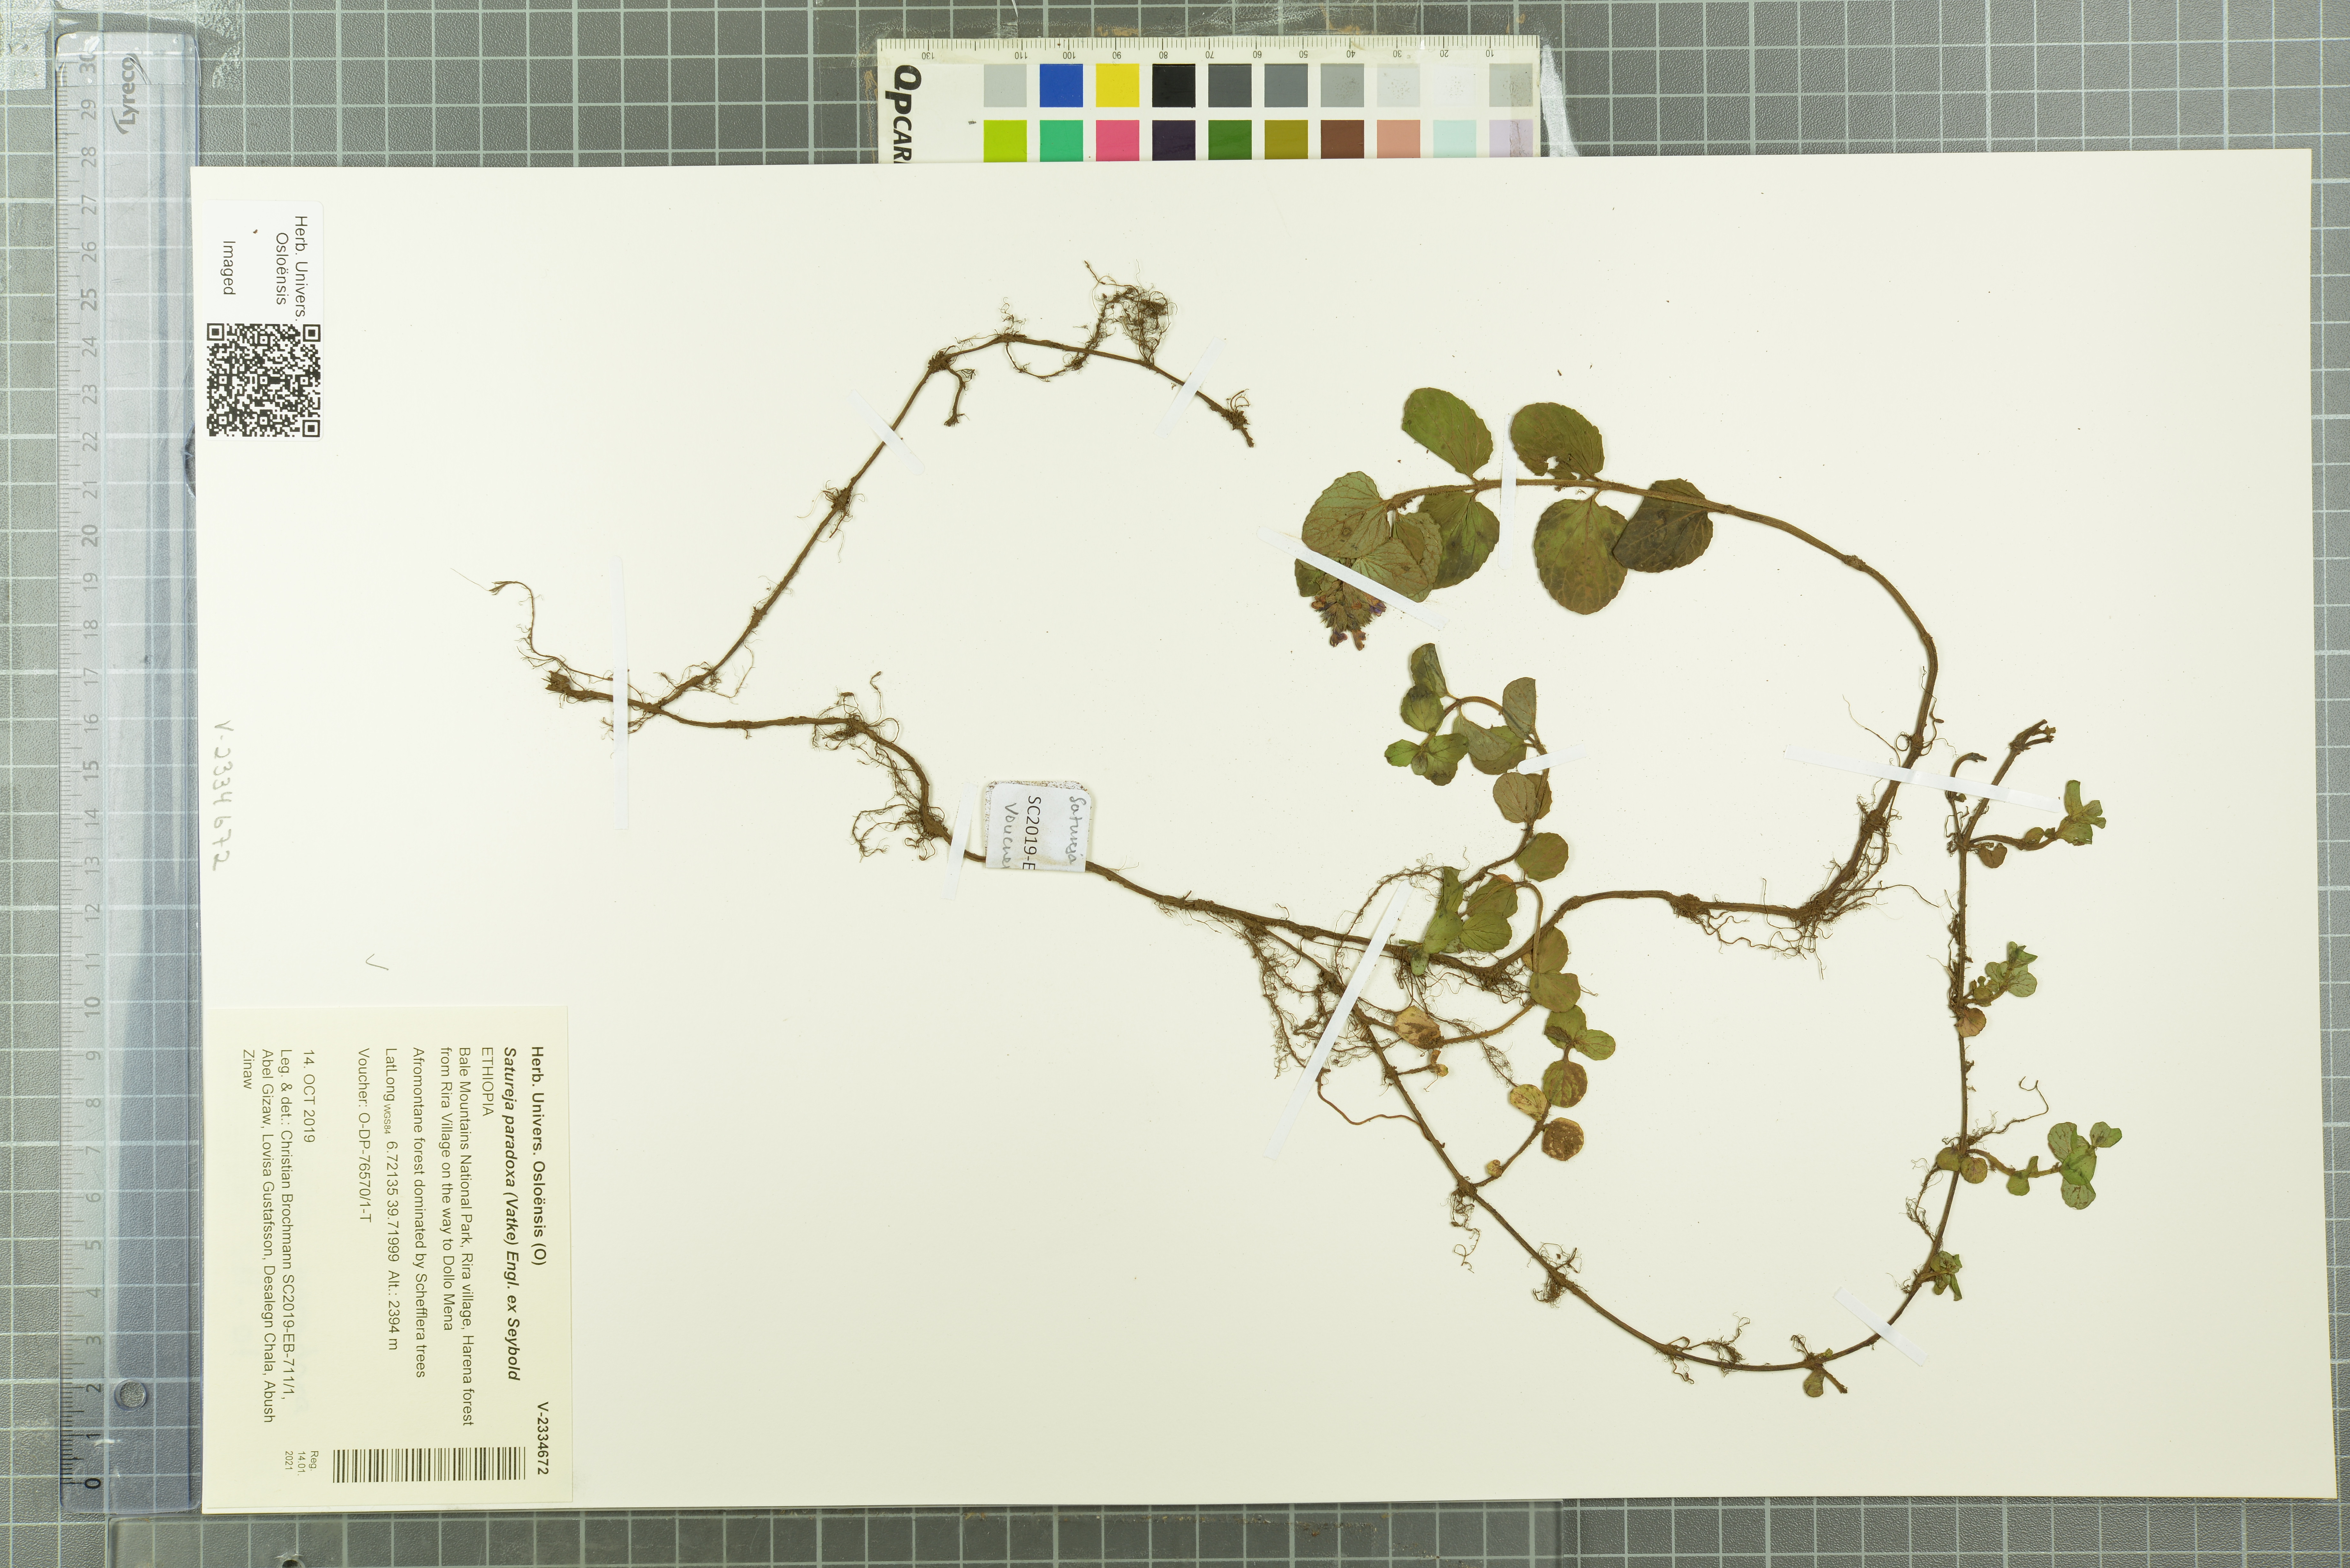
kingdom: Plantae
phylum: Tracheophyta
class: Magnoliopsida
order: Lamiales
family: Lamiaceae
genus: Clinopodium
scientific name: Clinopodium paradoxum
